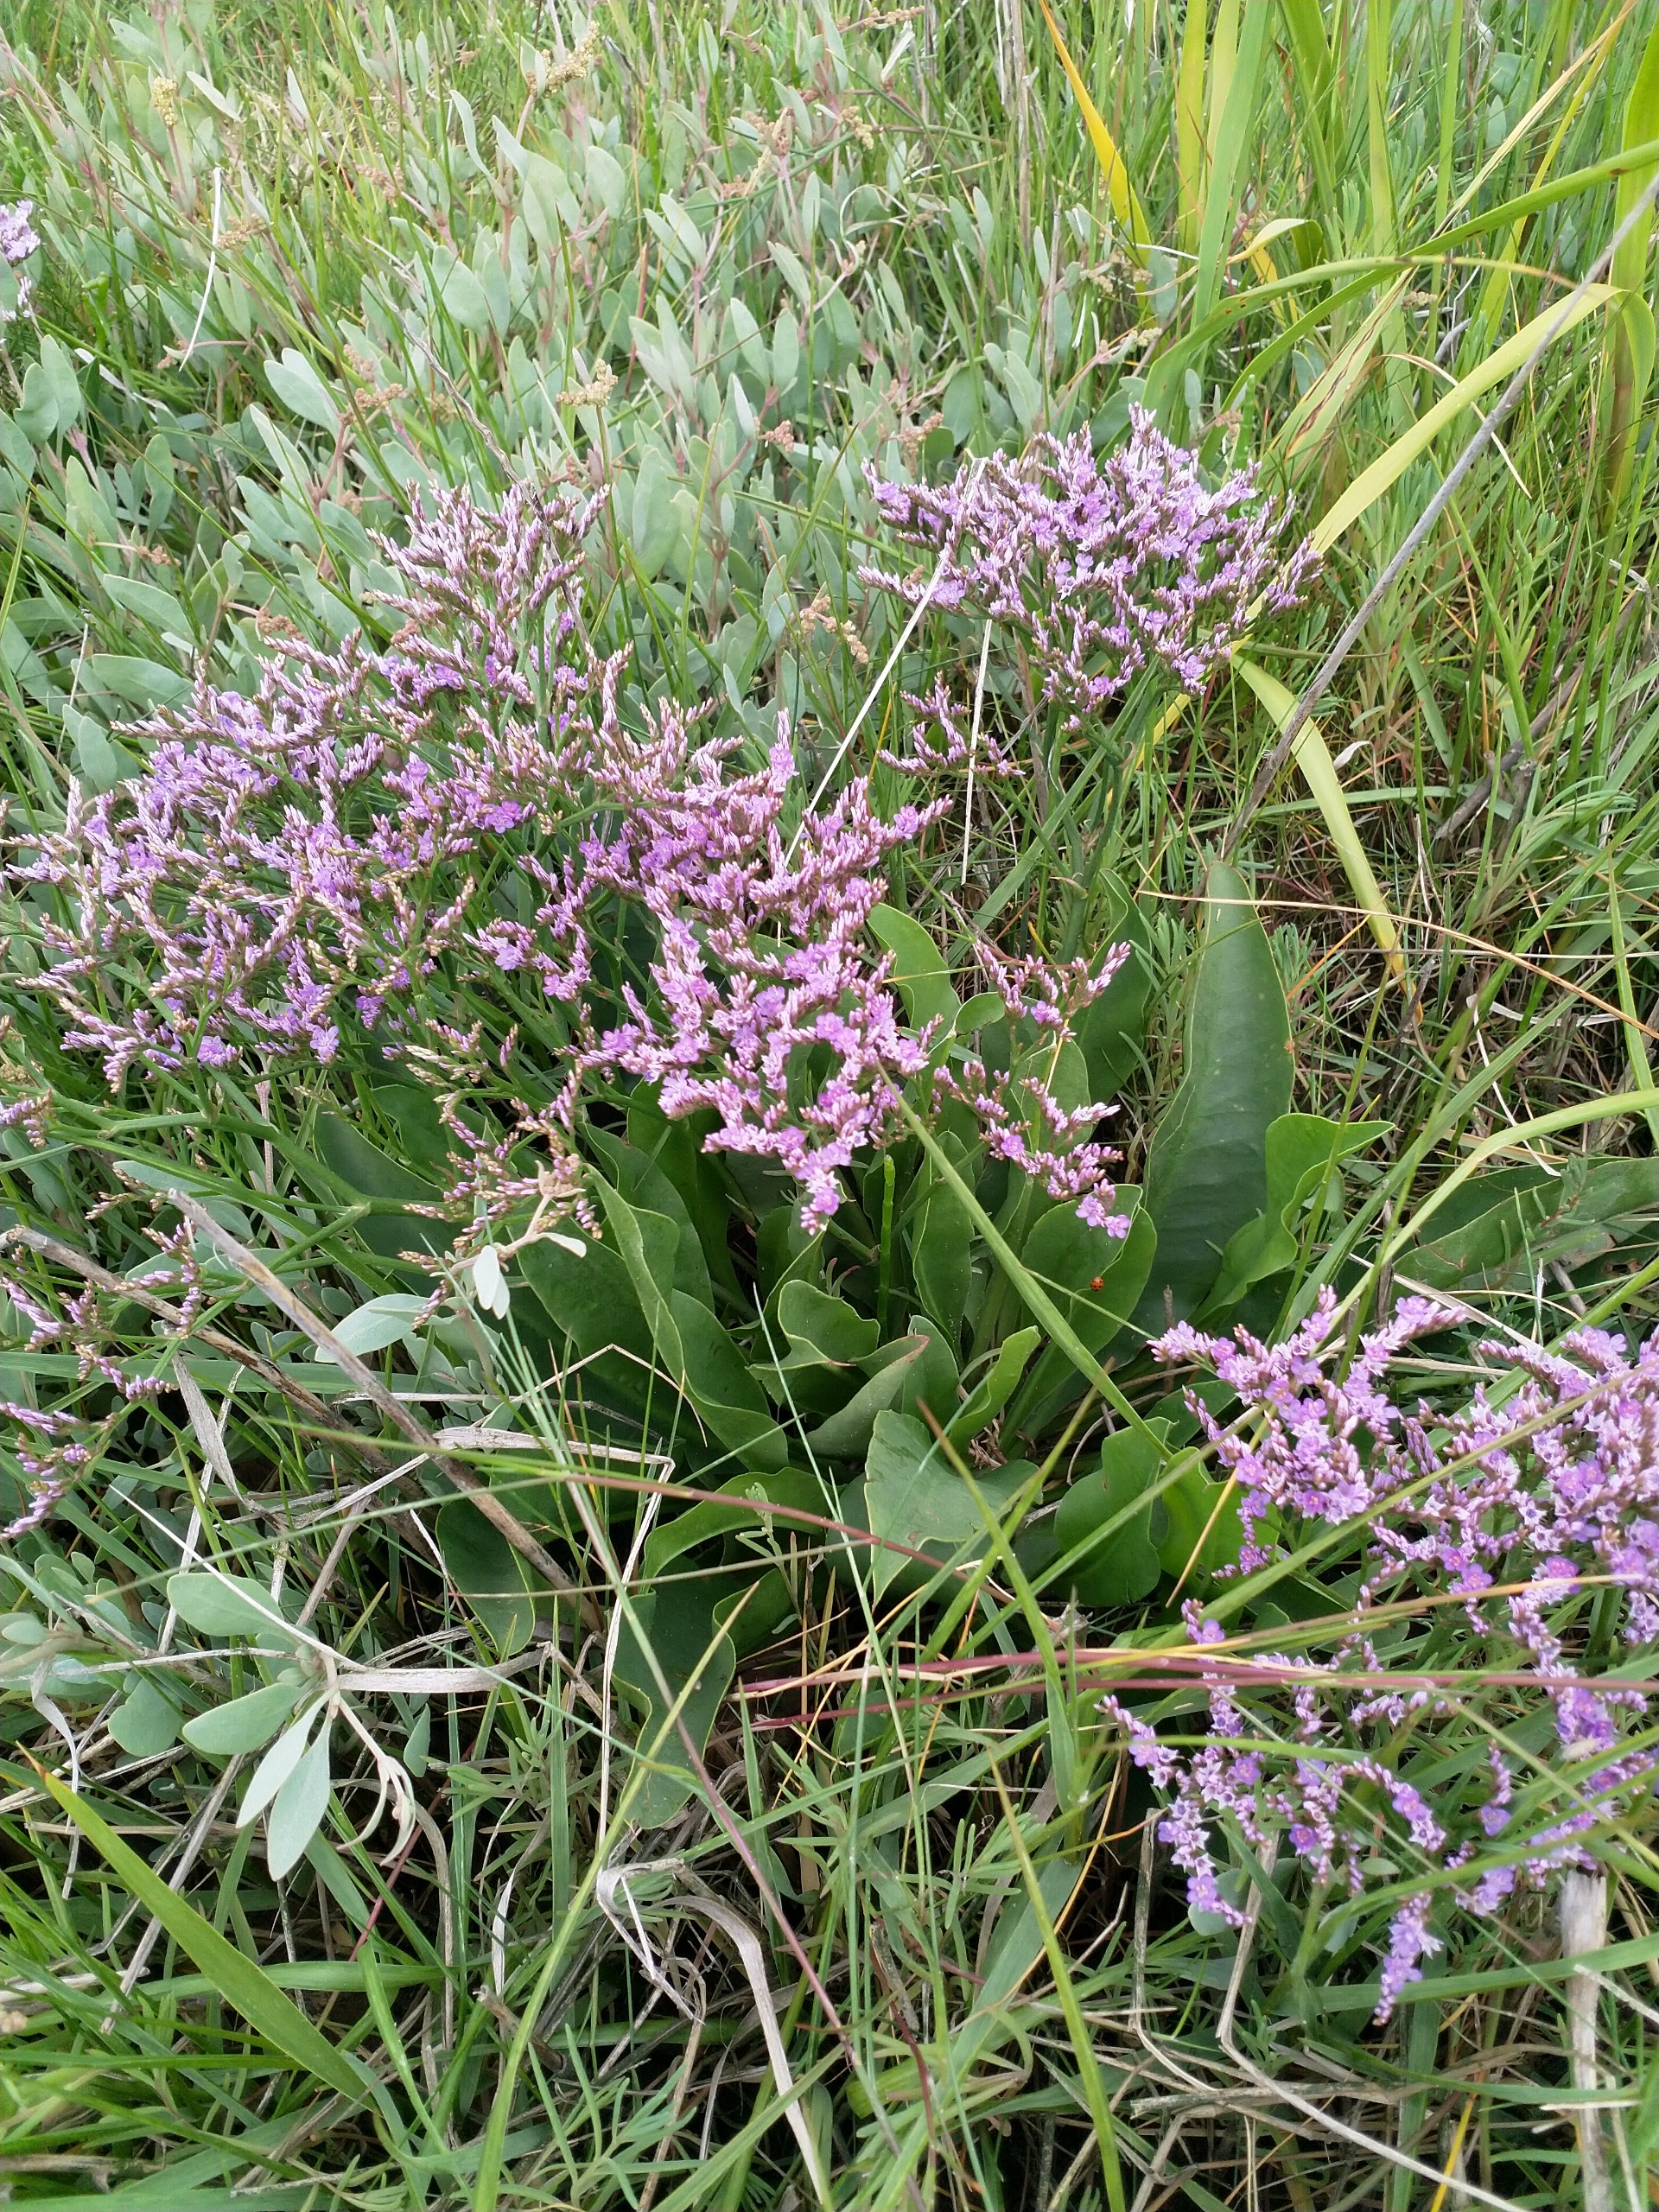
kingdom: Plantae
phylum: Tracheophyta
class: Magnoliopsida
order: Caryophyllales
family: Plumbaginaceae
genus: Limonium
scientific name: Limonium vulgare
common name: Tætblomstret hindebæger
